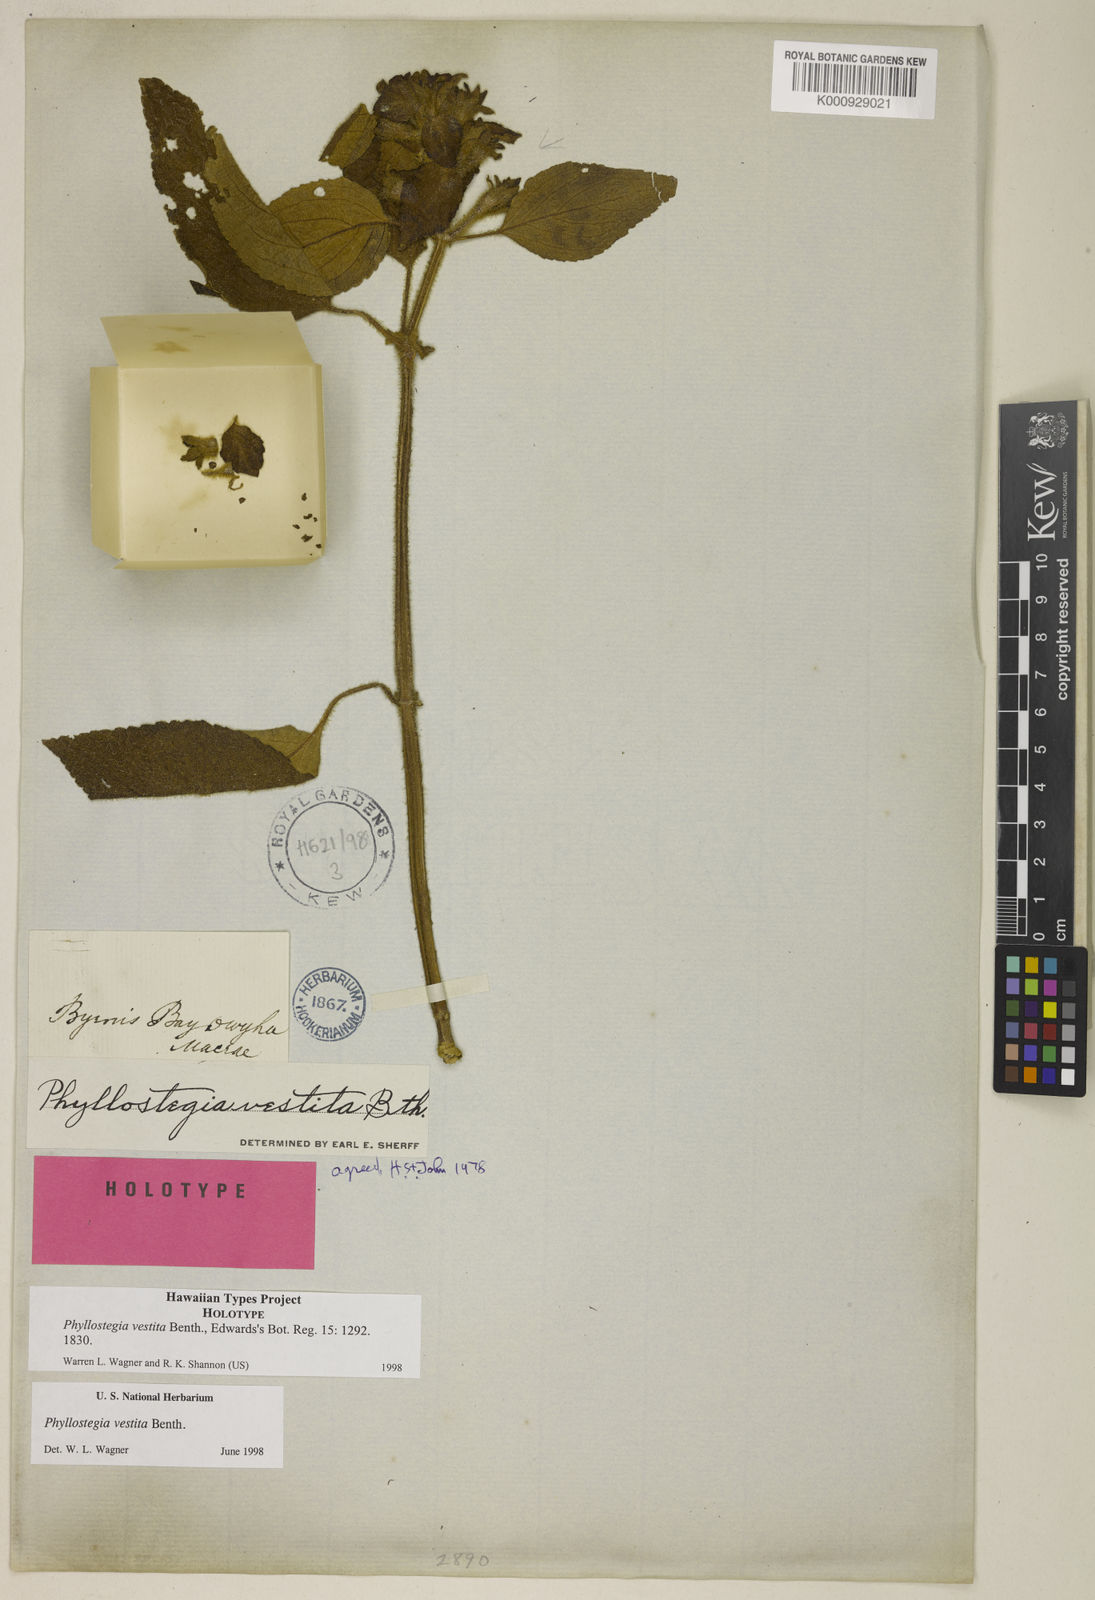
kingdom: Plantae
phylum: Tracheophyta
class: Magnoliopsida
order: Lamiales
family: Lamiaceae
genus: Phyllostegia
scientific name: Phyllostegia vestita
